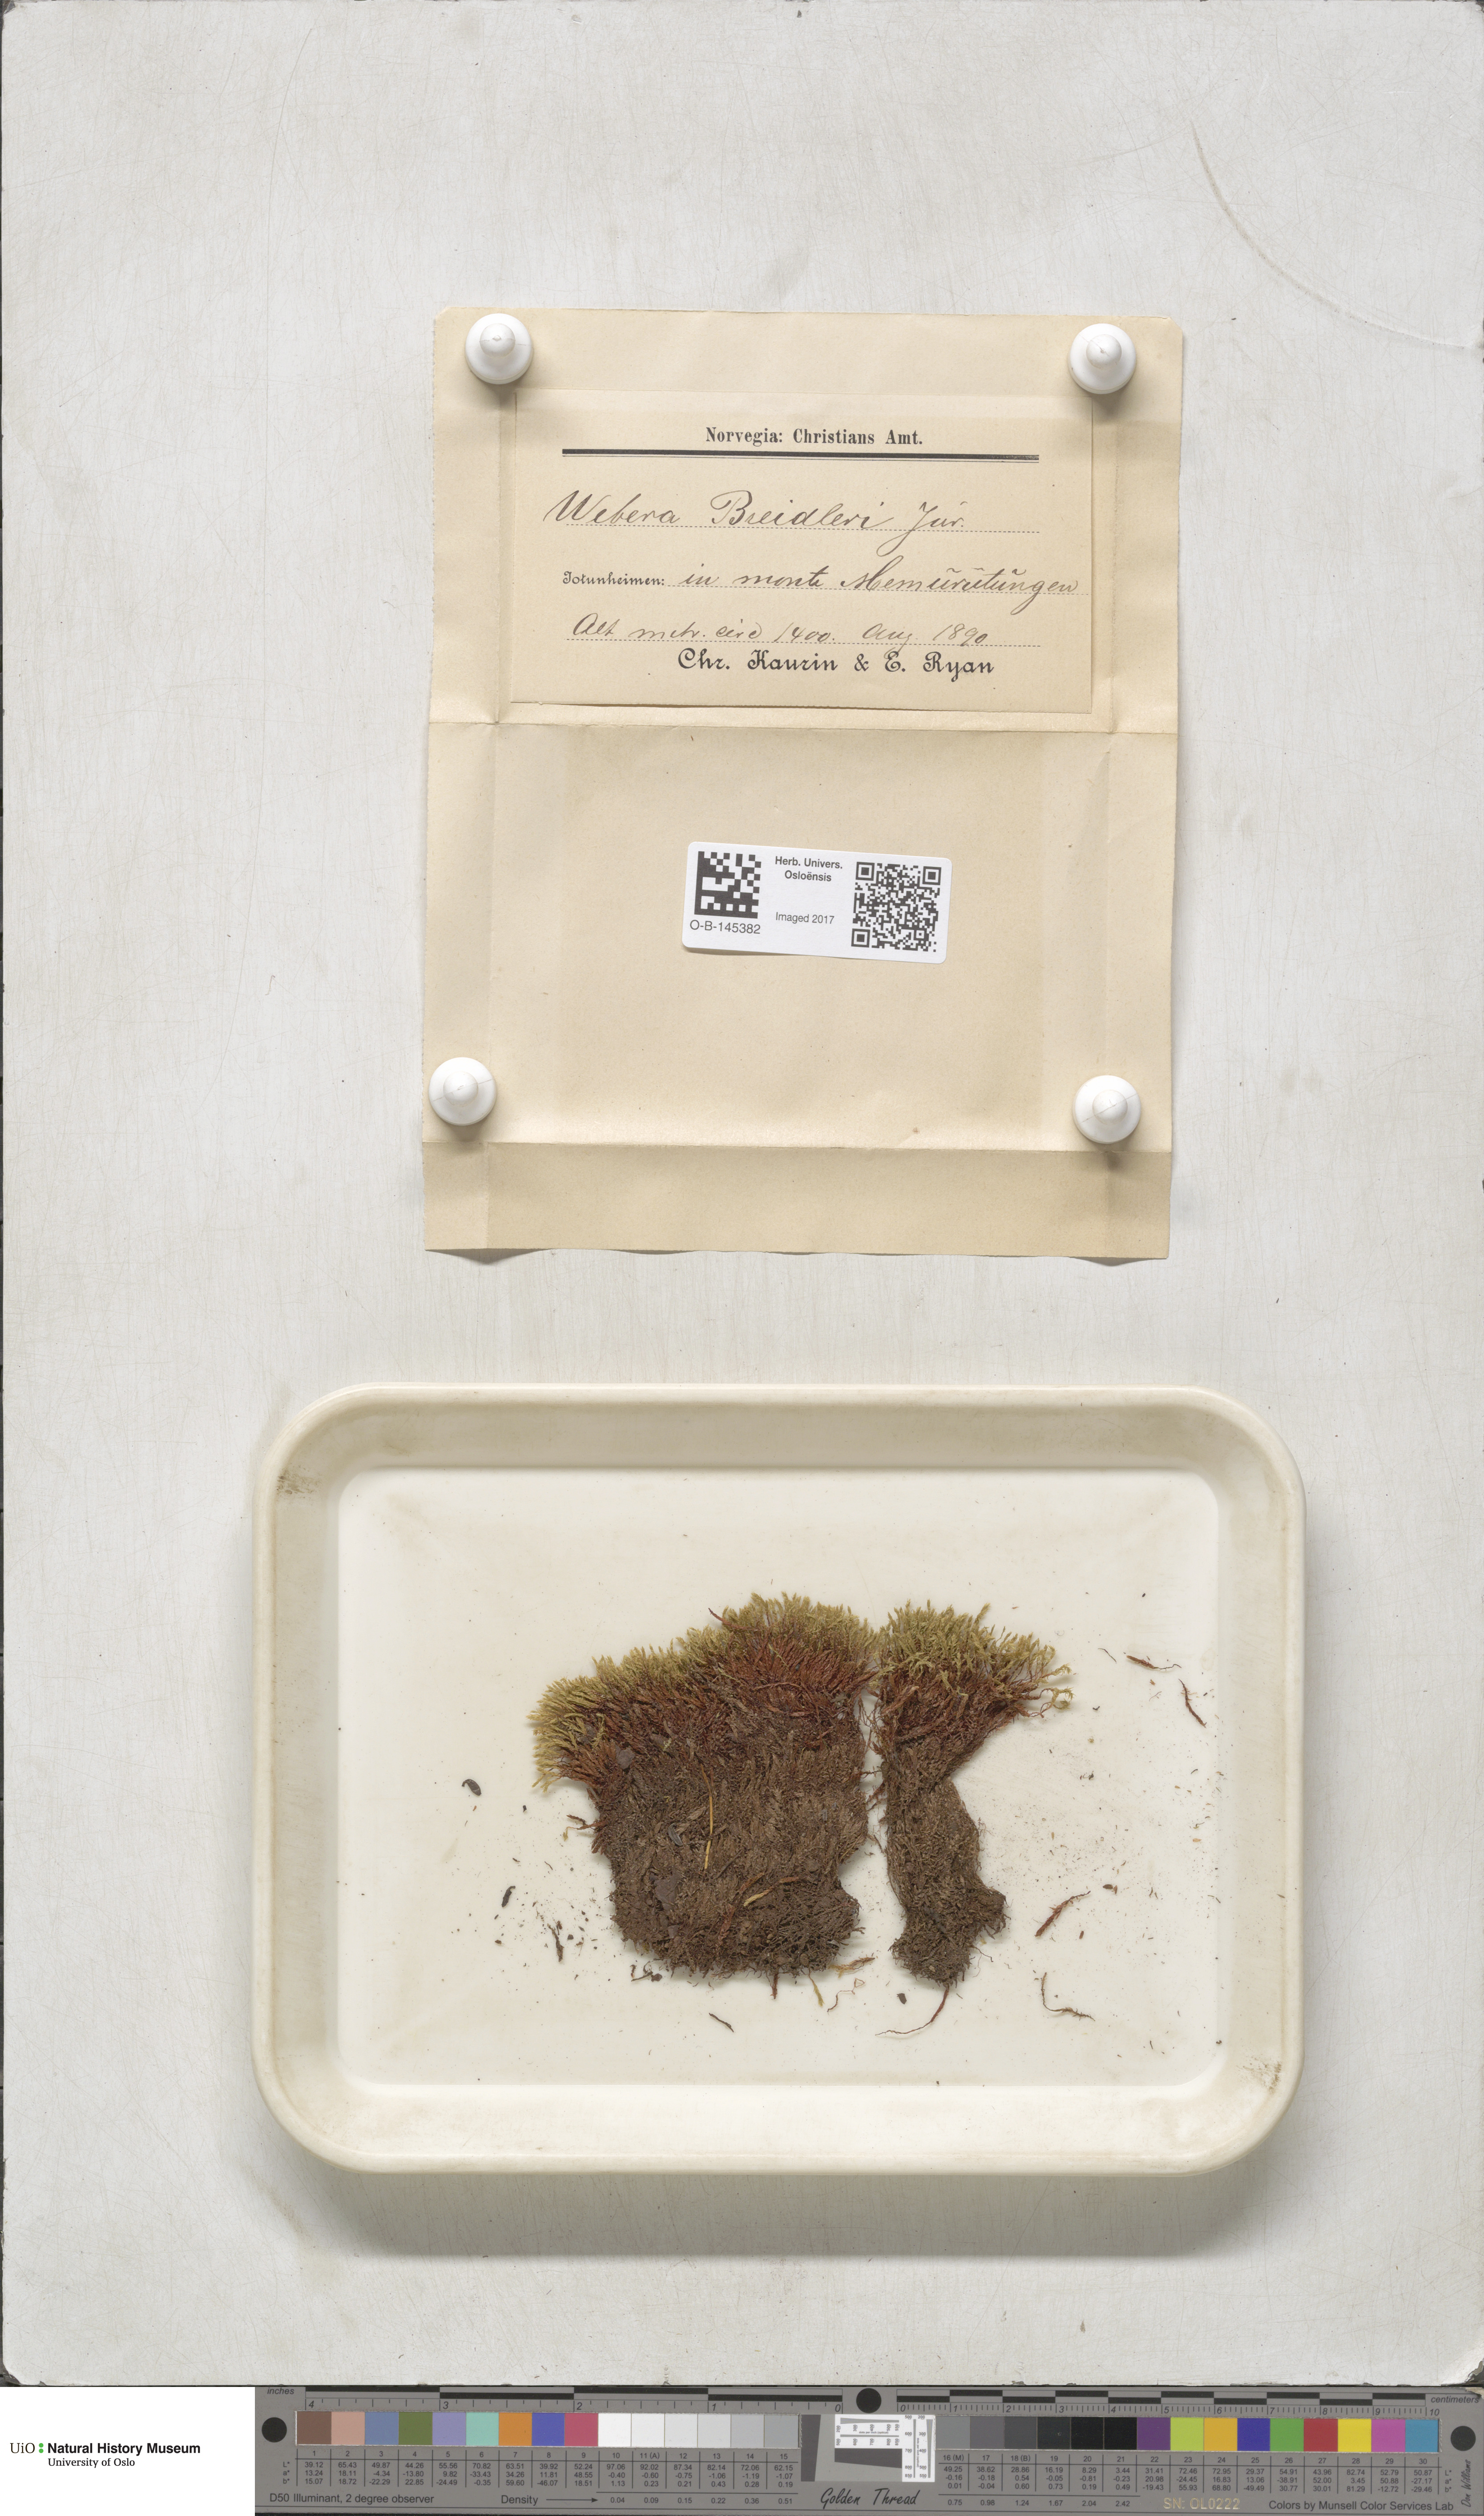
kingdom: Plantae
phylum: Bryophyta
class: Bryopsida
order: Bryales
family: Mniaceae
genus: Pohlia
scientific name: Pohlia ludwigii
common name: Ludwig's thread-moss
